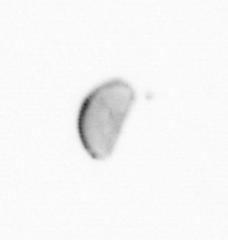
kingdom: Chromista
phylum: Ochrophyta
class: Bacillariophyceae
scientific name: Bacillariophyceae
